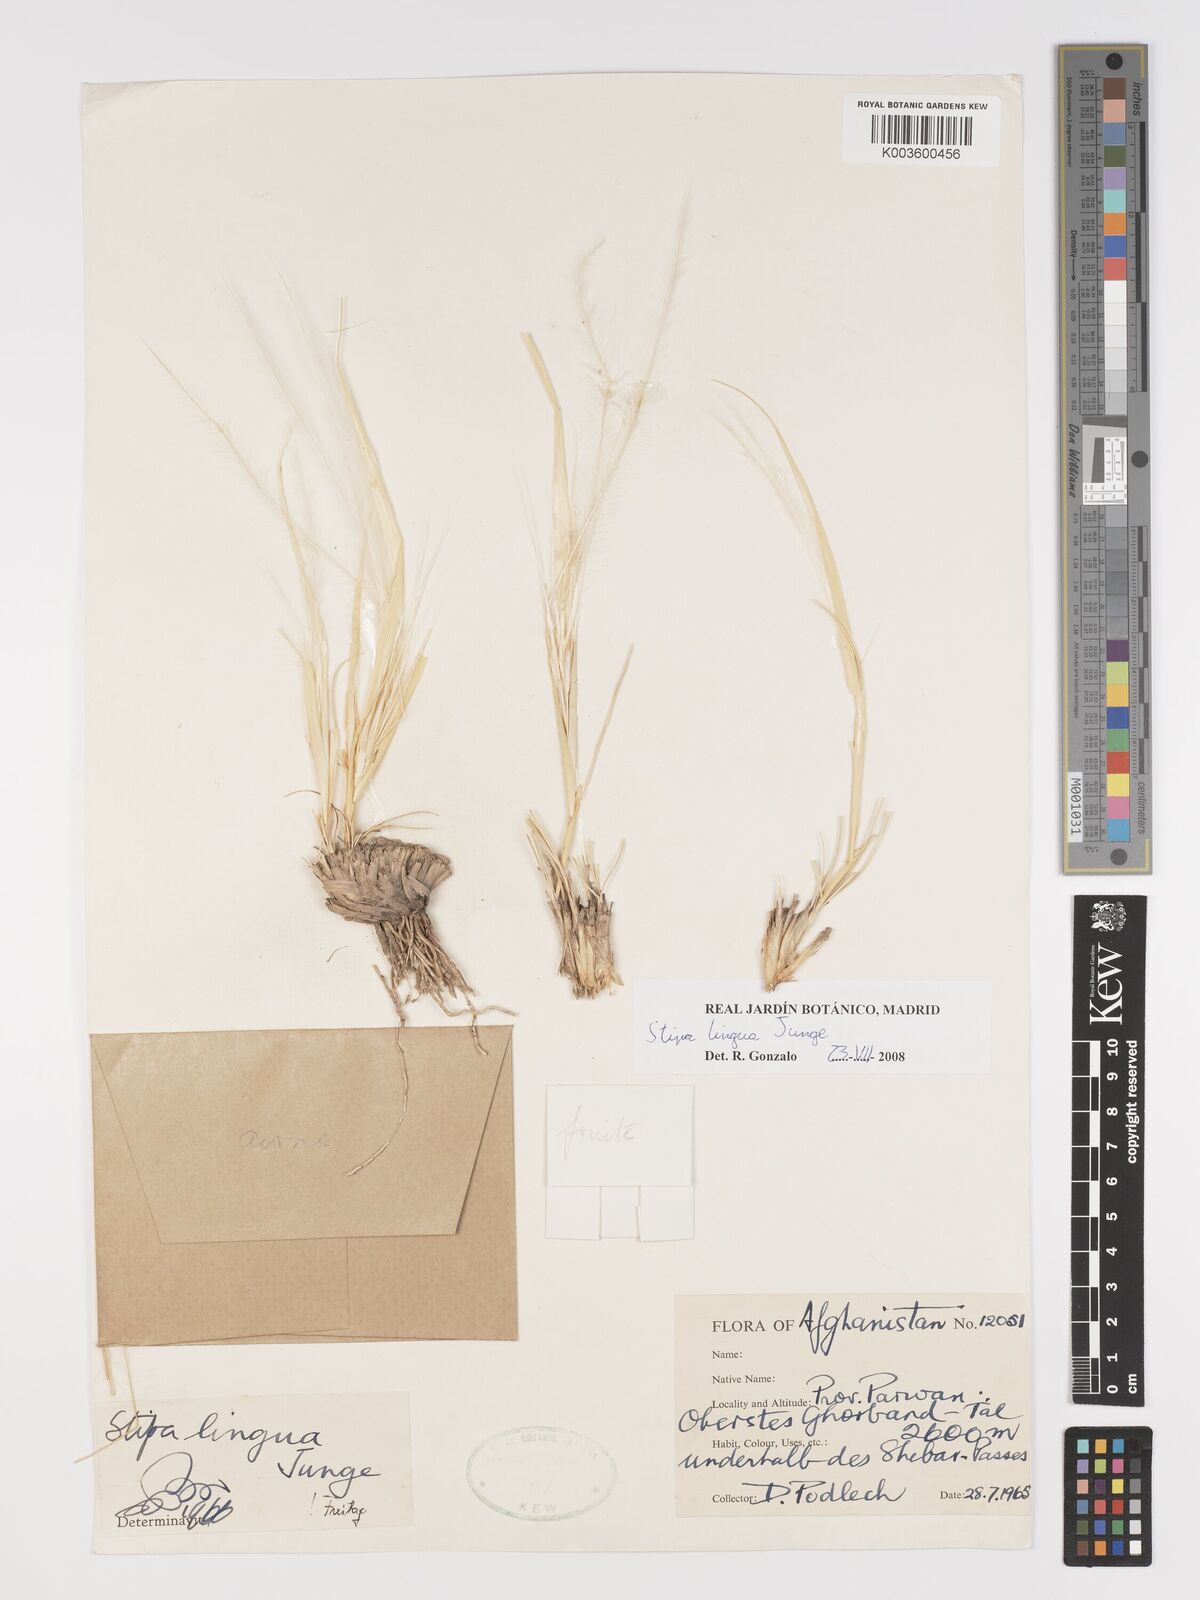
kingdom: Plantae
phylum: Tracheophyta
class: Liliopsida
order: Poales
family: Poaceae
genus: Stipa
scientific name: Stipa lingua
